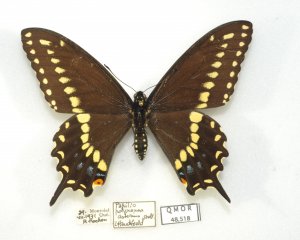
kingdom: Animalia
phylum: Arthropoda
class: Insecta
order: Lepidoptera
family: Papilionidae
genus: Papilio
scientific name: Papilio polyxenes
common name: Black Swallowtail
